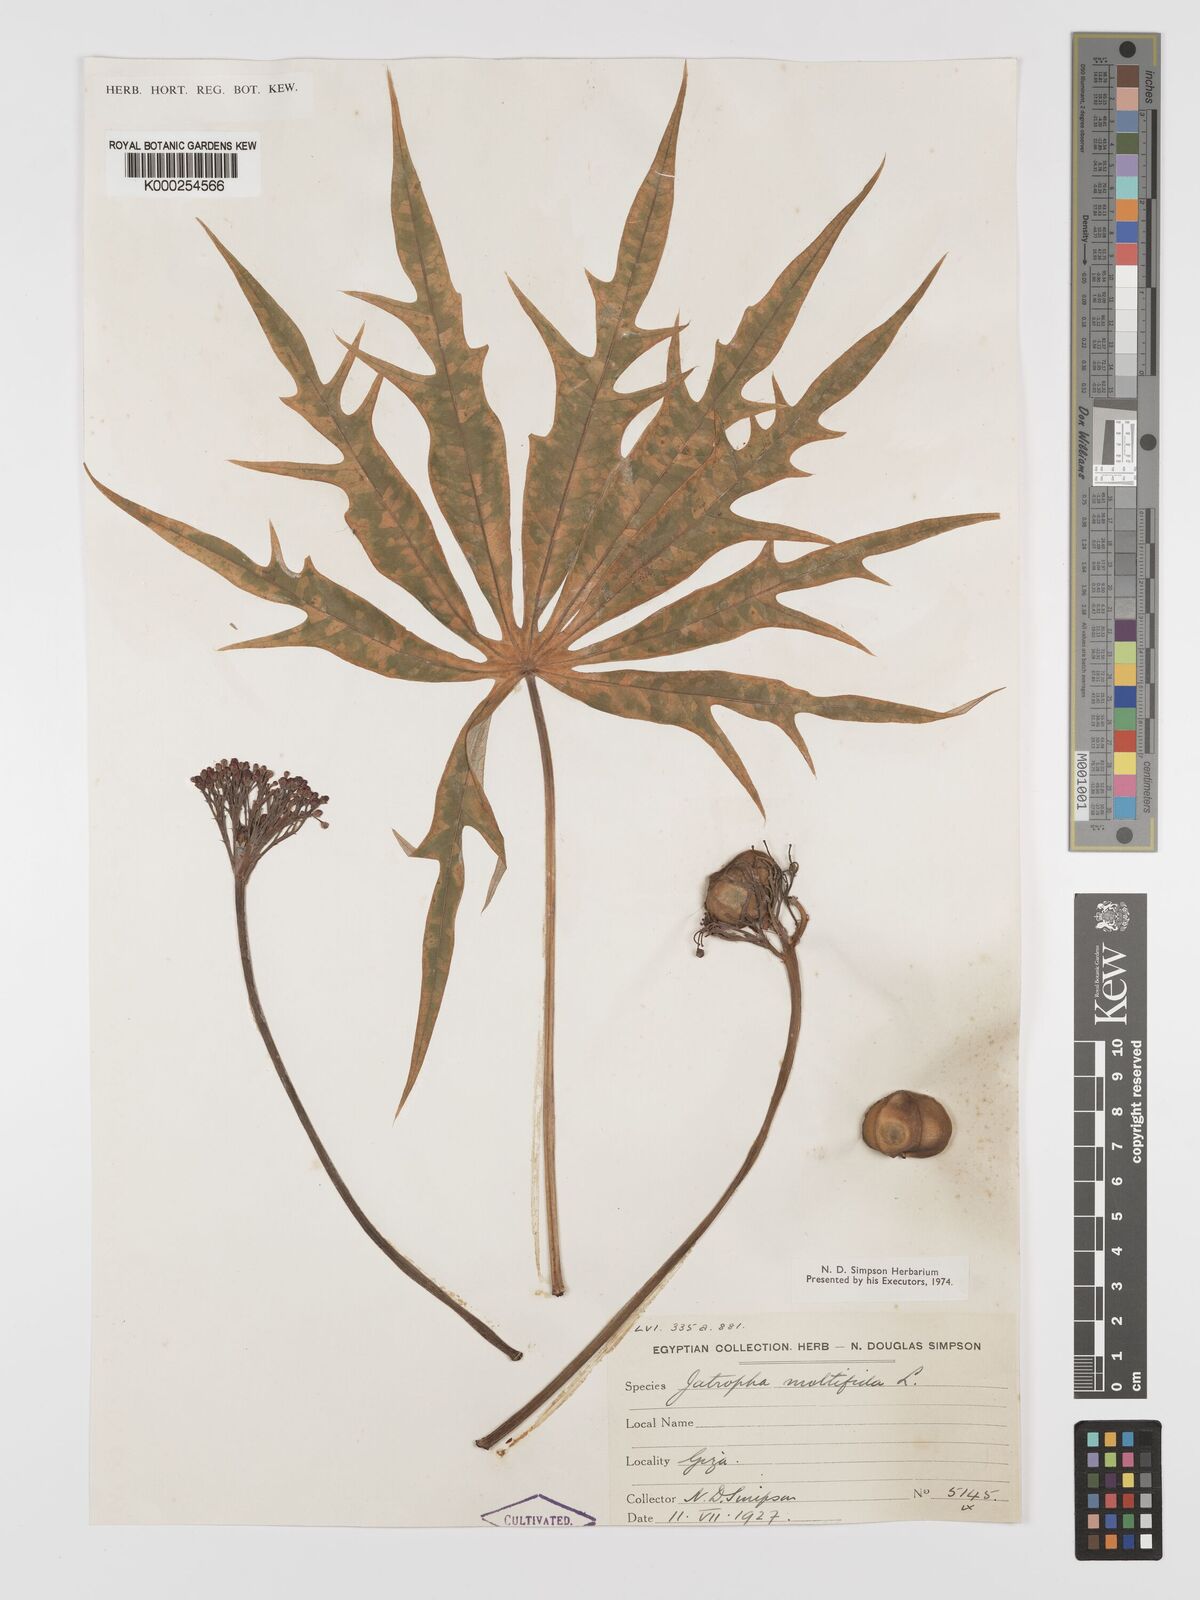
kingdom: Plantae
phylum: Tracheophyta
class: Magnoliopsida
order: Malpighiales
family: Euphorbiaceae
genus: Jatropha
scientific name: Jatropha multifida
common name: Coralbush
